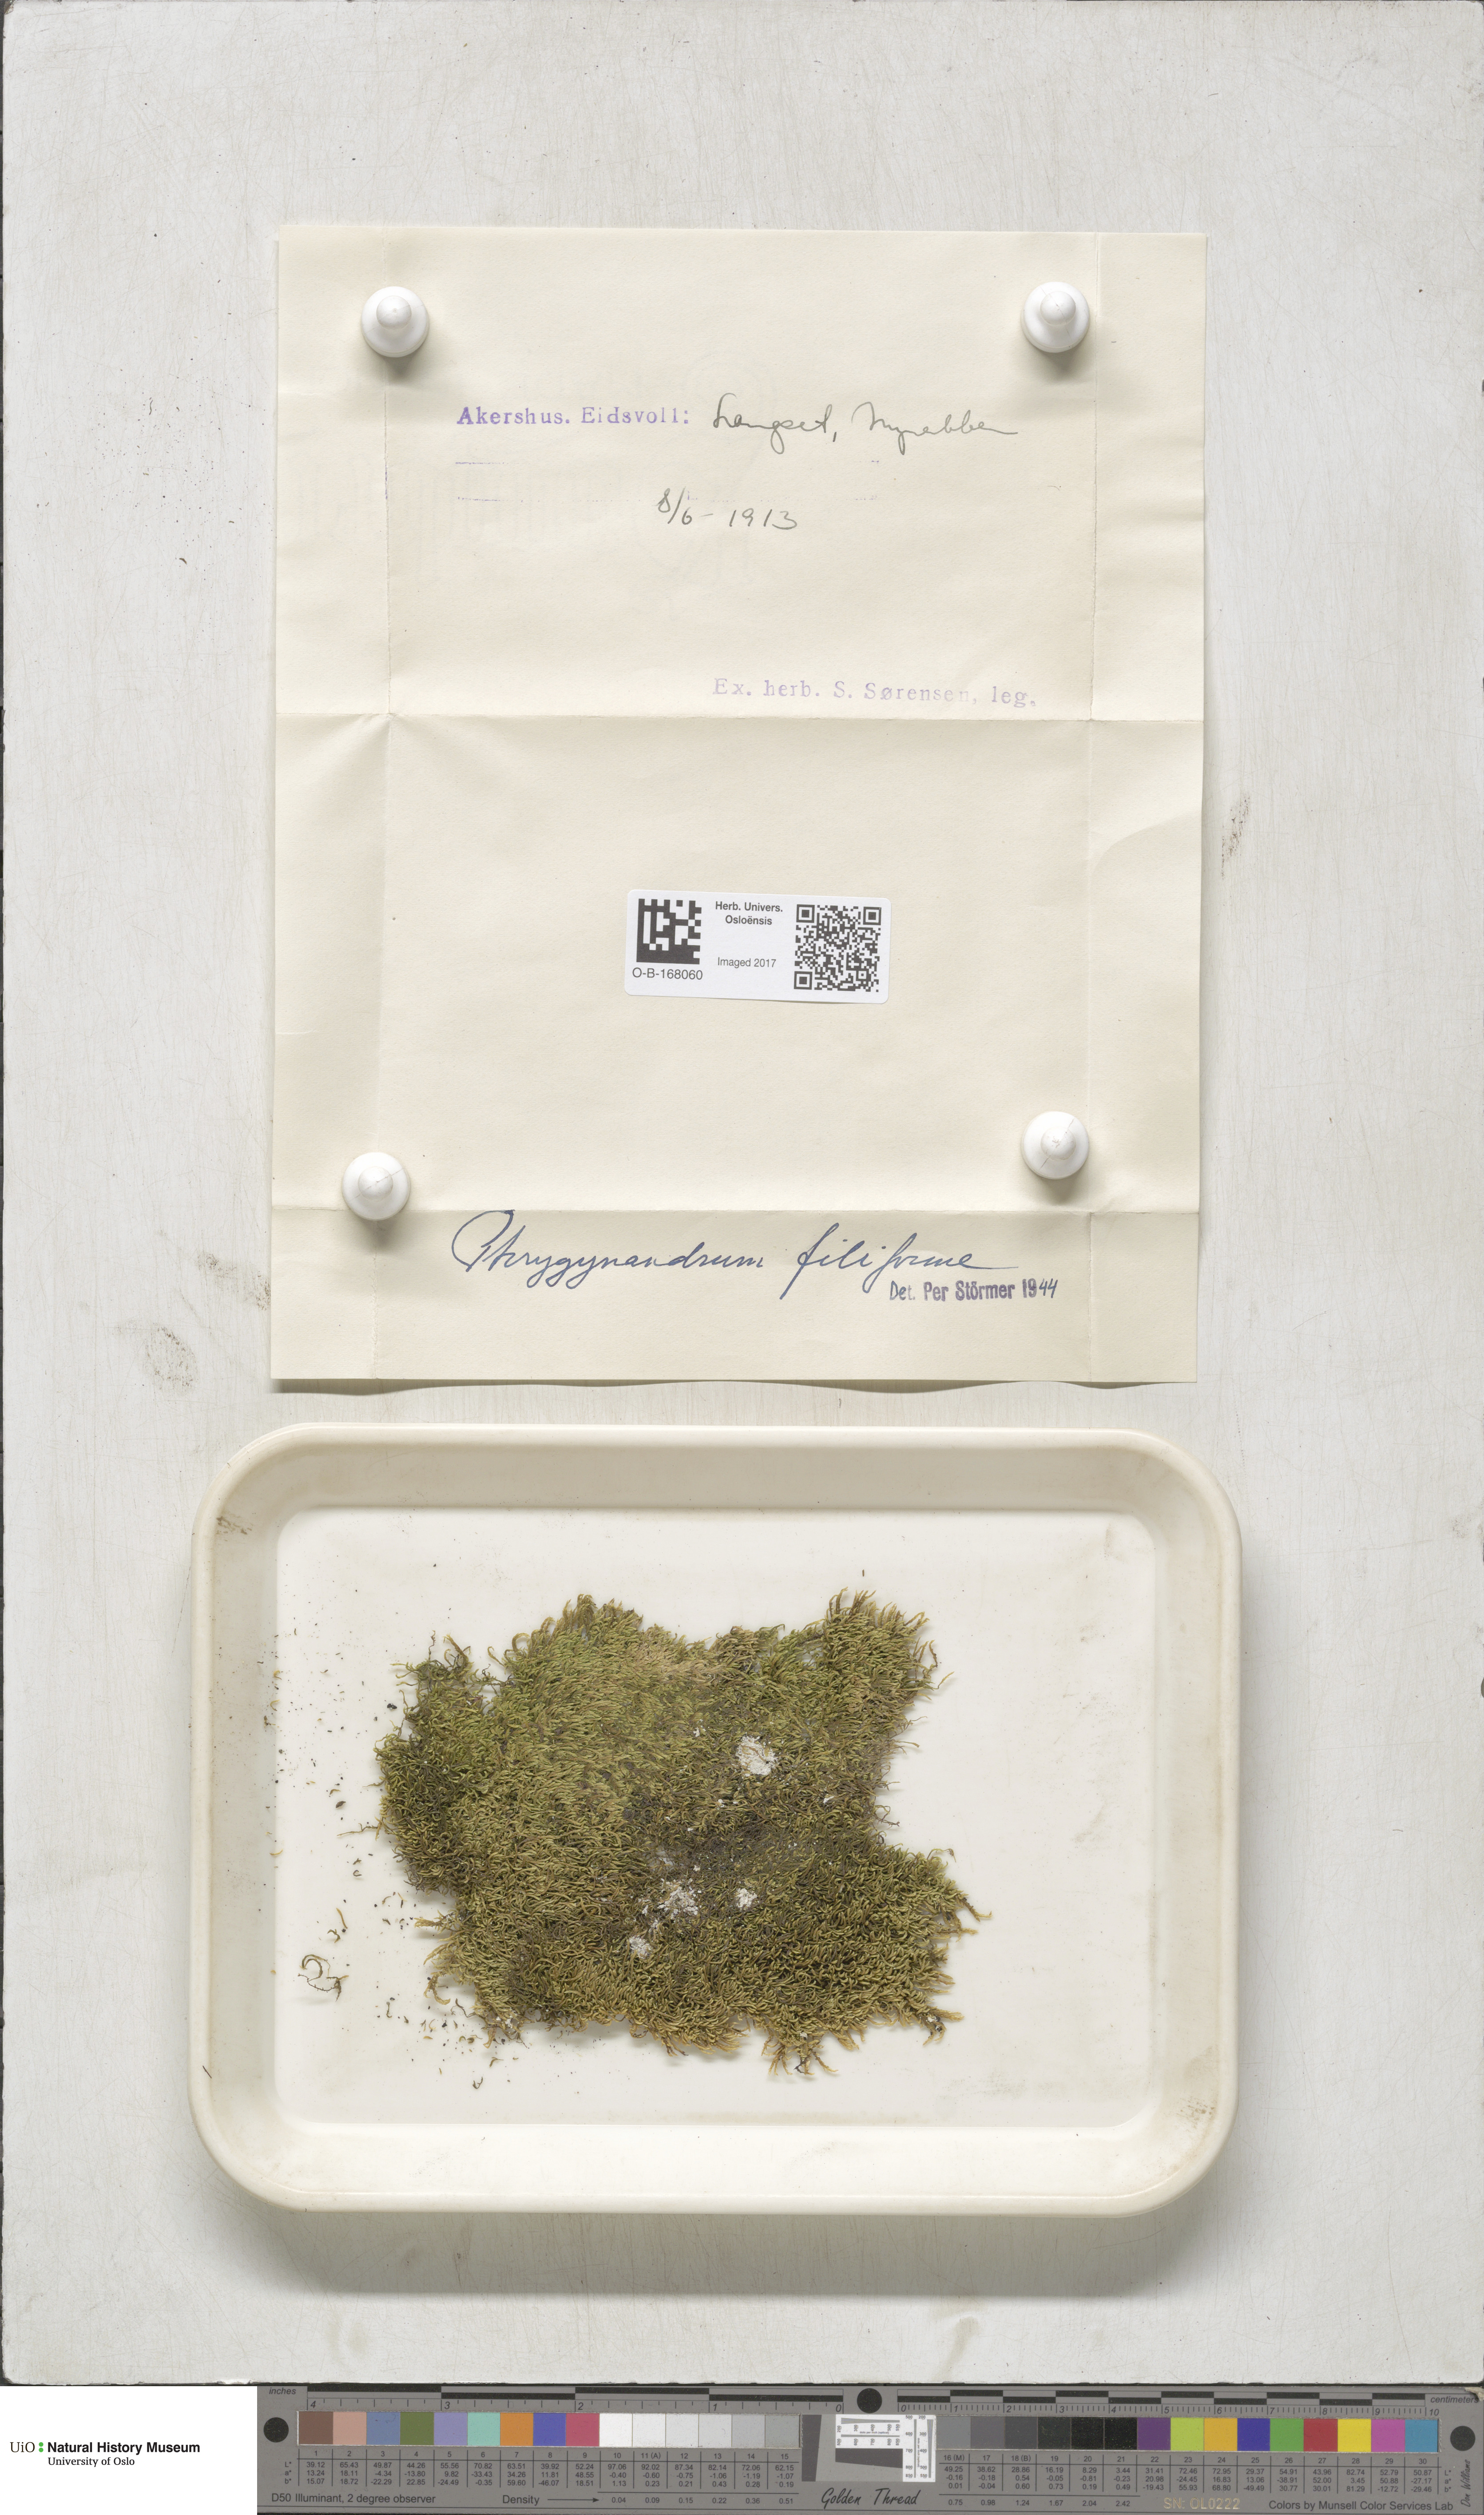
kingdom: Plantae
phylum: Bryophyta
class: Bryopsida
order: Hypnales
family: Pterigynandraceae
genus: Pterigynandrum
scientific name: Pterigynandrum filiforme
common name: Capillary wing moss
